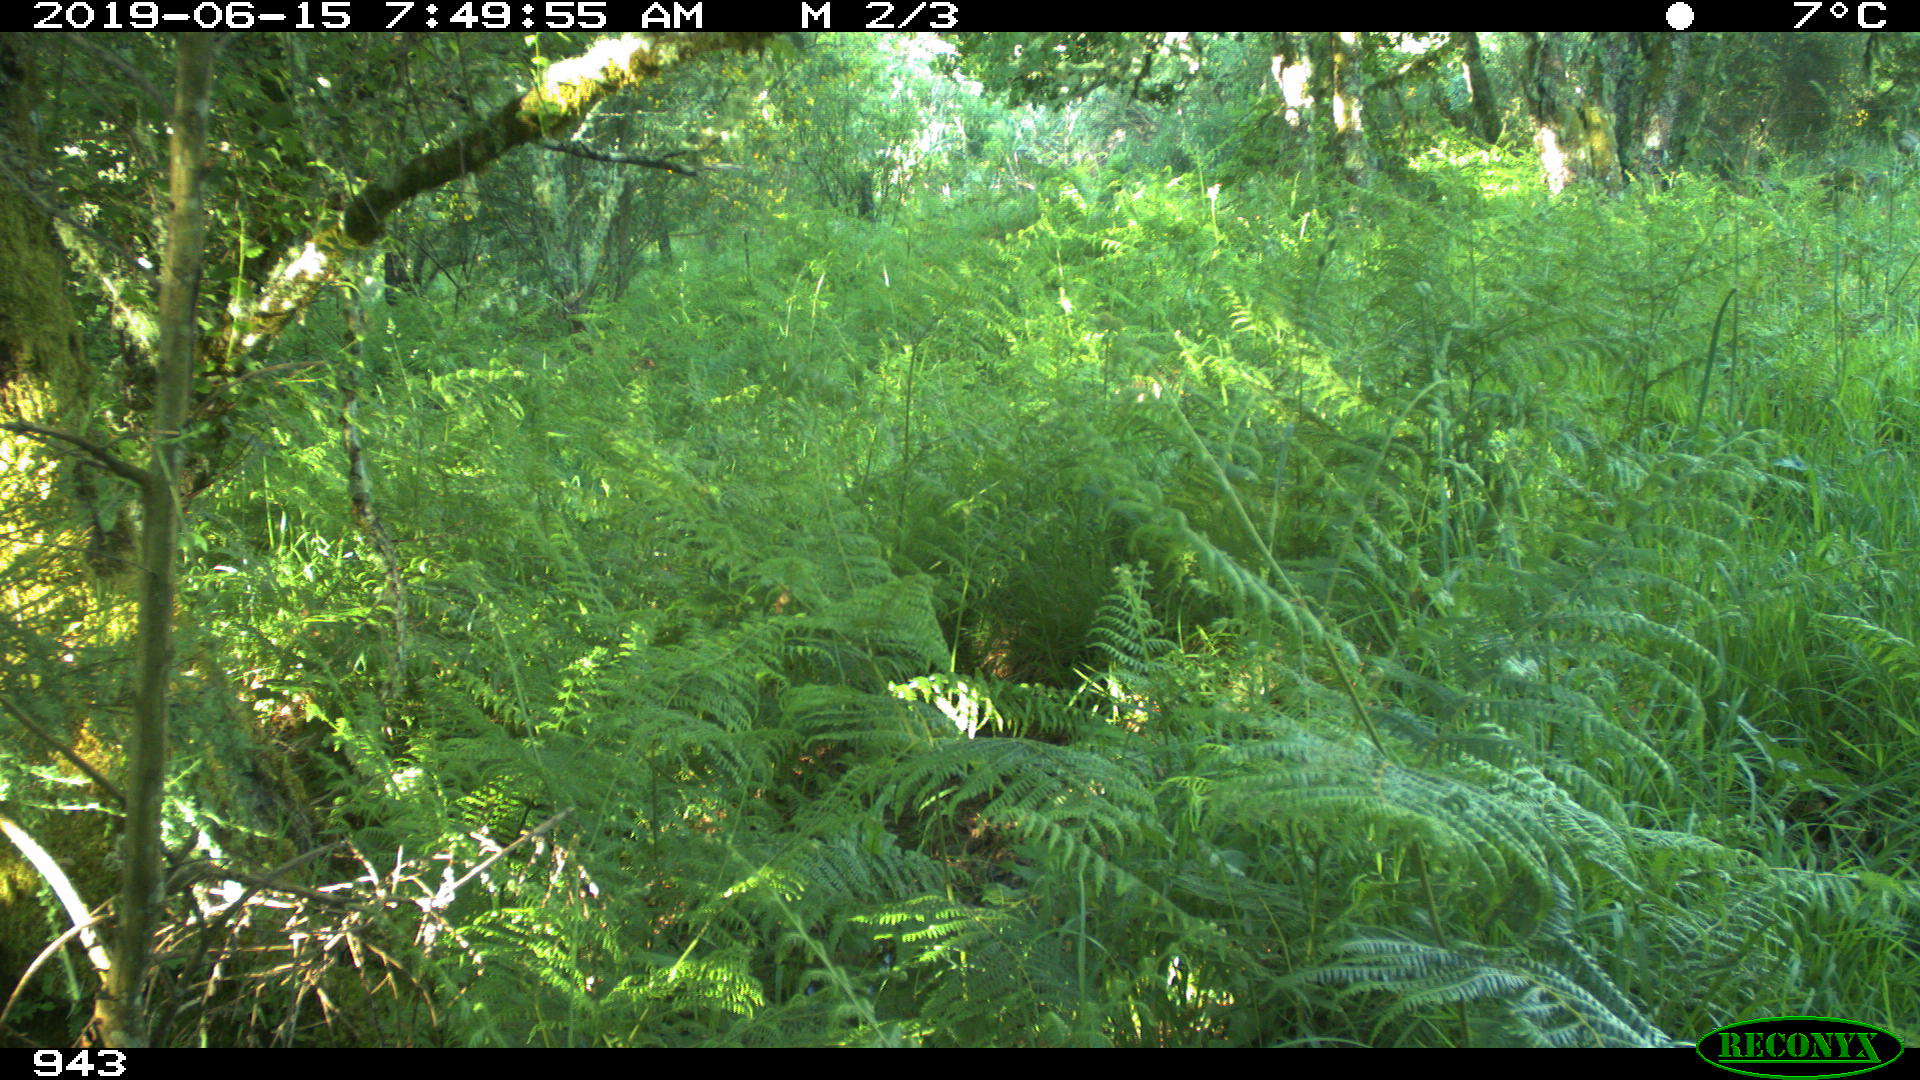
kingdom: Animalia
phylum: Chordata
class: Mammalia
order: Artiodactyla
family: Cervidae
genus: Capreolus
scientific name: Capreolus capreolus
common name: Western roe deer
